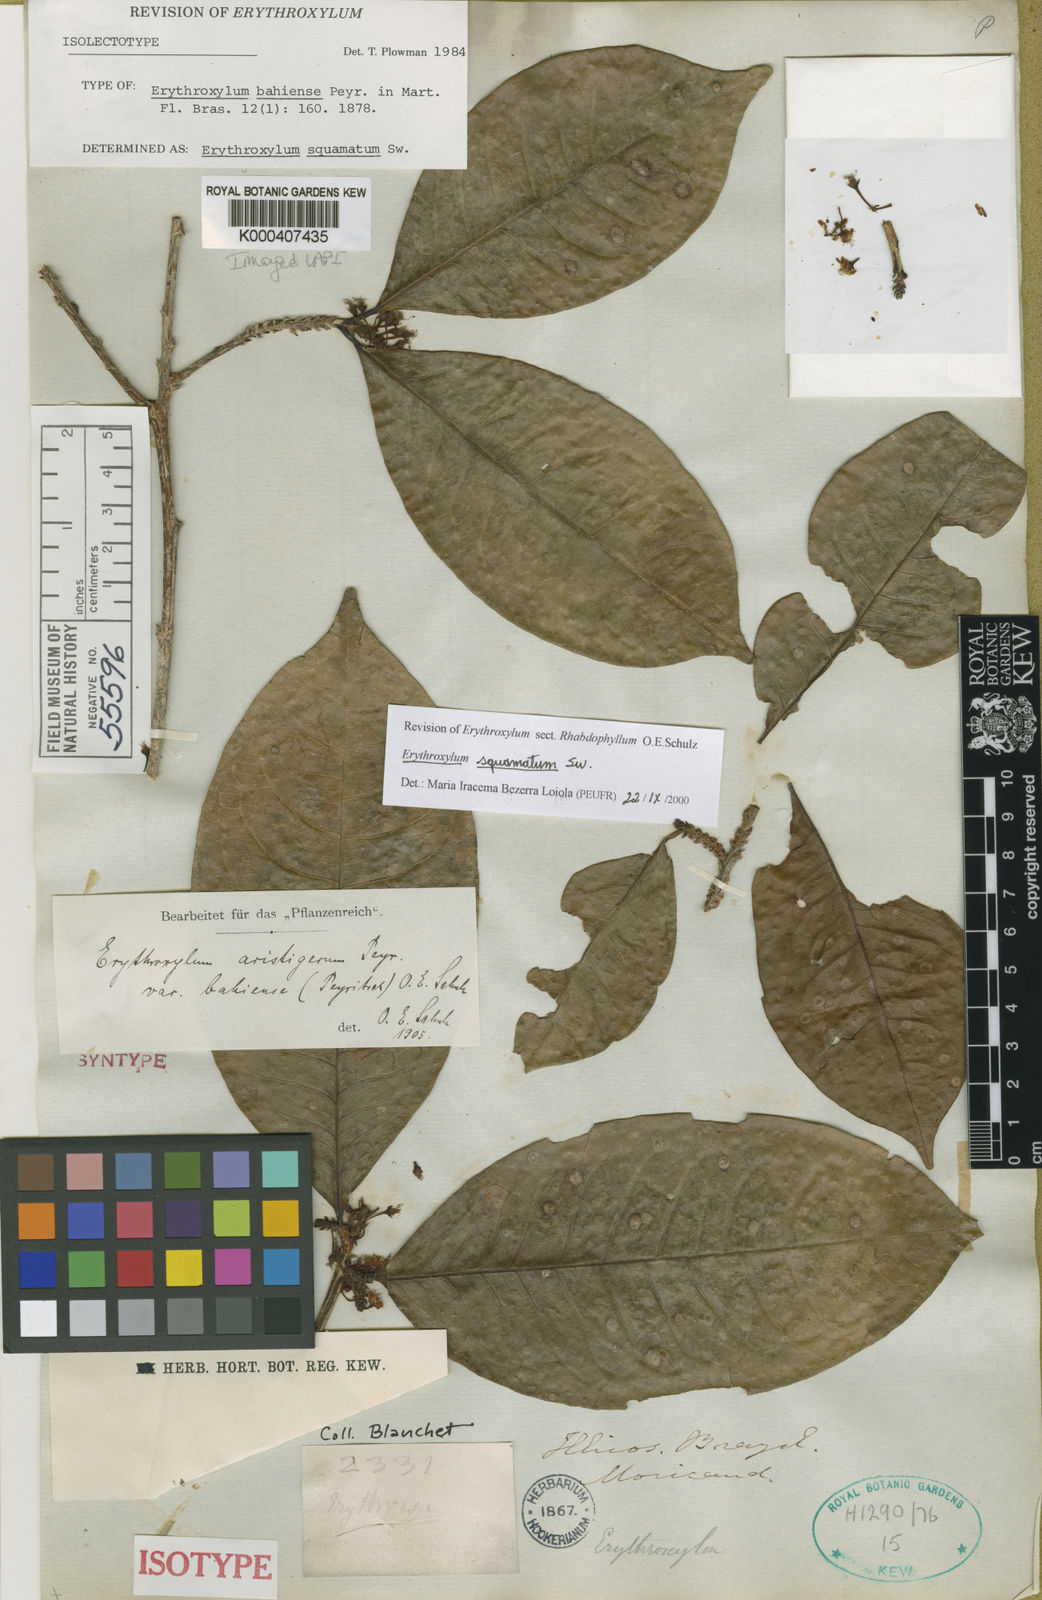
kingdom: Plantae
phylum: Tracheophyta
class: Magnoliopsida
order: Malpighiales
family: Erythroxylaceae
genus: Erythroxylum
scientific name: Erythroxylum squamatum
